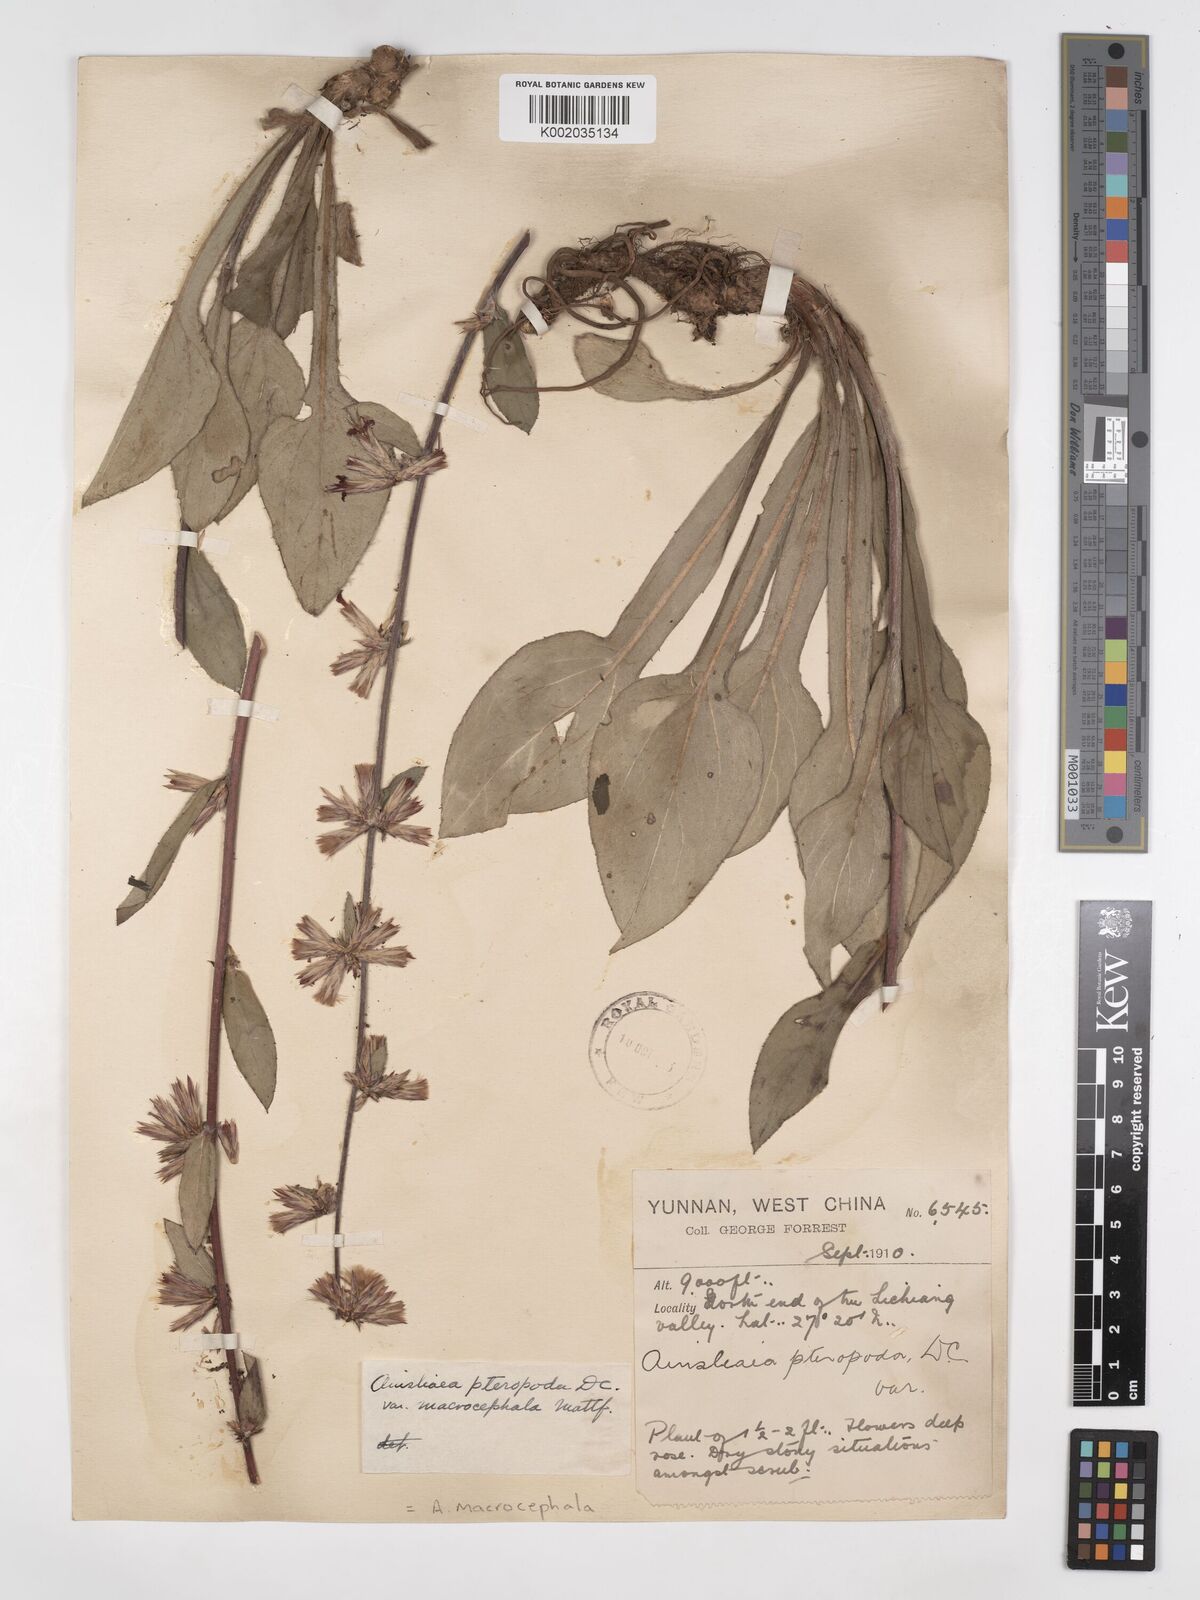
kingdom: Plantae
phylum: Tracheophyta
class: Magnoliopsida
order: Asterales
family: Asteraceae
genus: Ainsliaea
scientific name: Ainsliaea macrocephala
